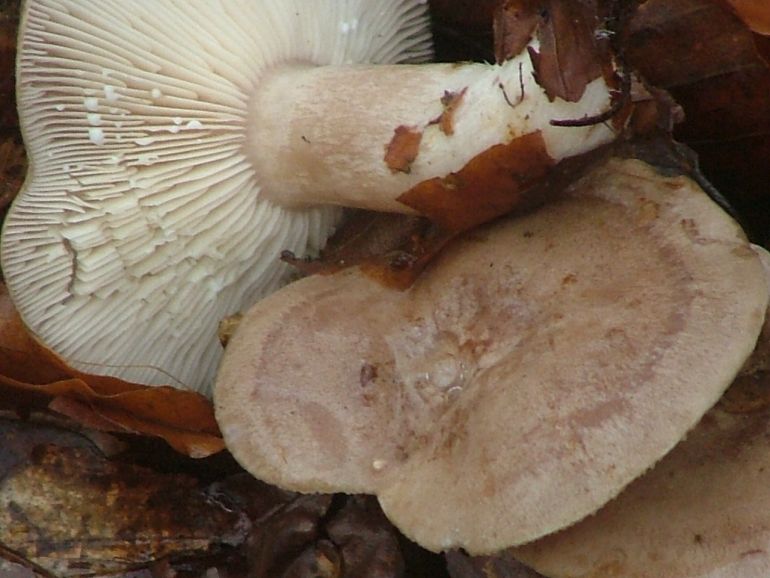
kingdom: Fungi
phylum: Basidiomycota
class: Agaricomycetes
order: Russulales
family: Russulaceae
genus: Lactarius
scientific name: Lactarius blennius
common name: dråbeplettet mælkehat
